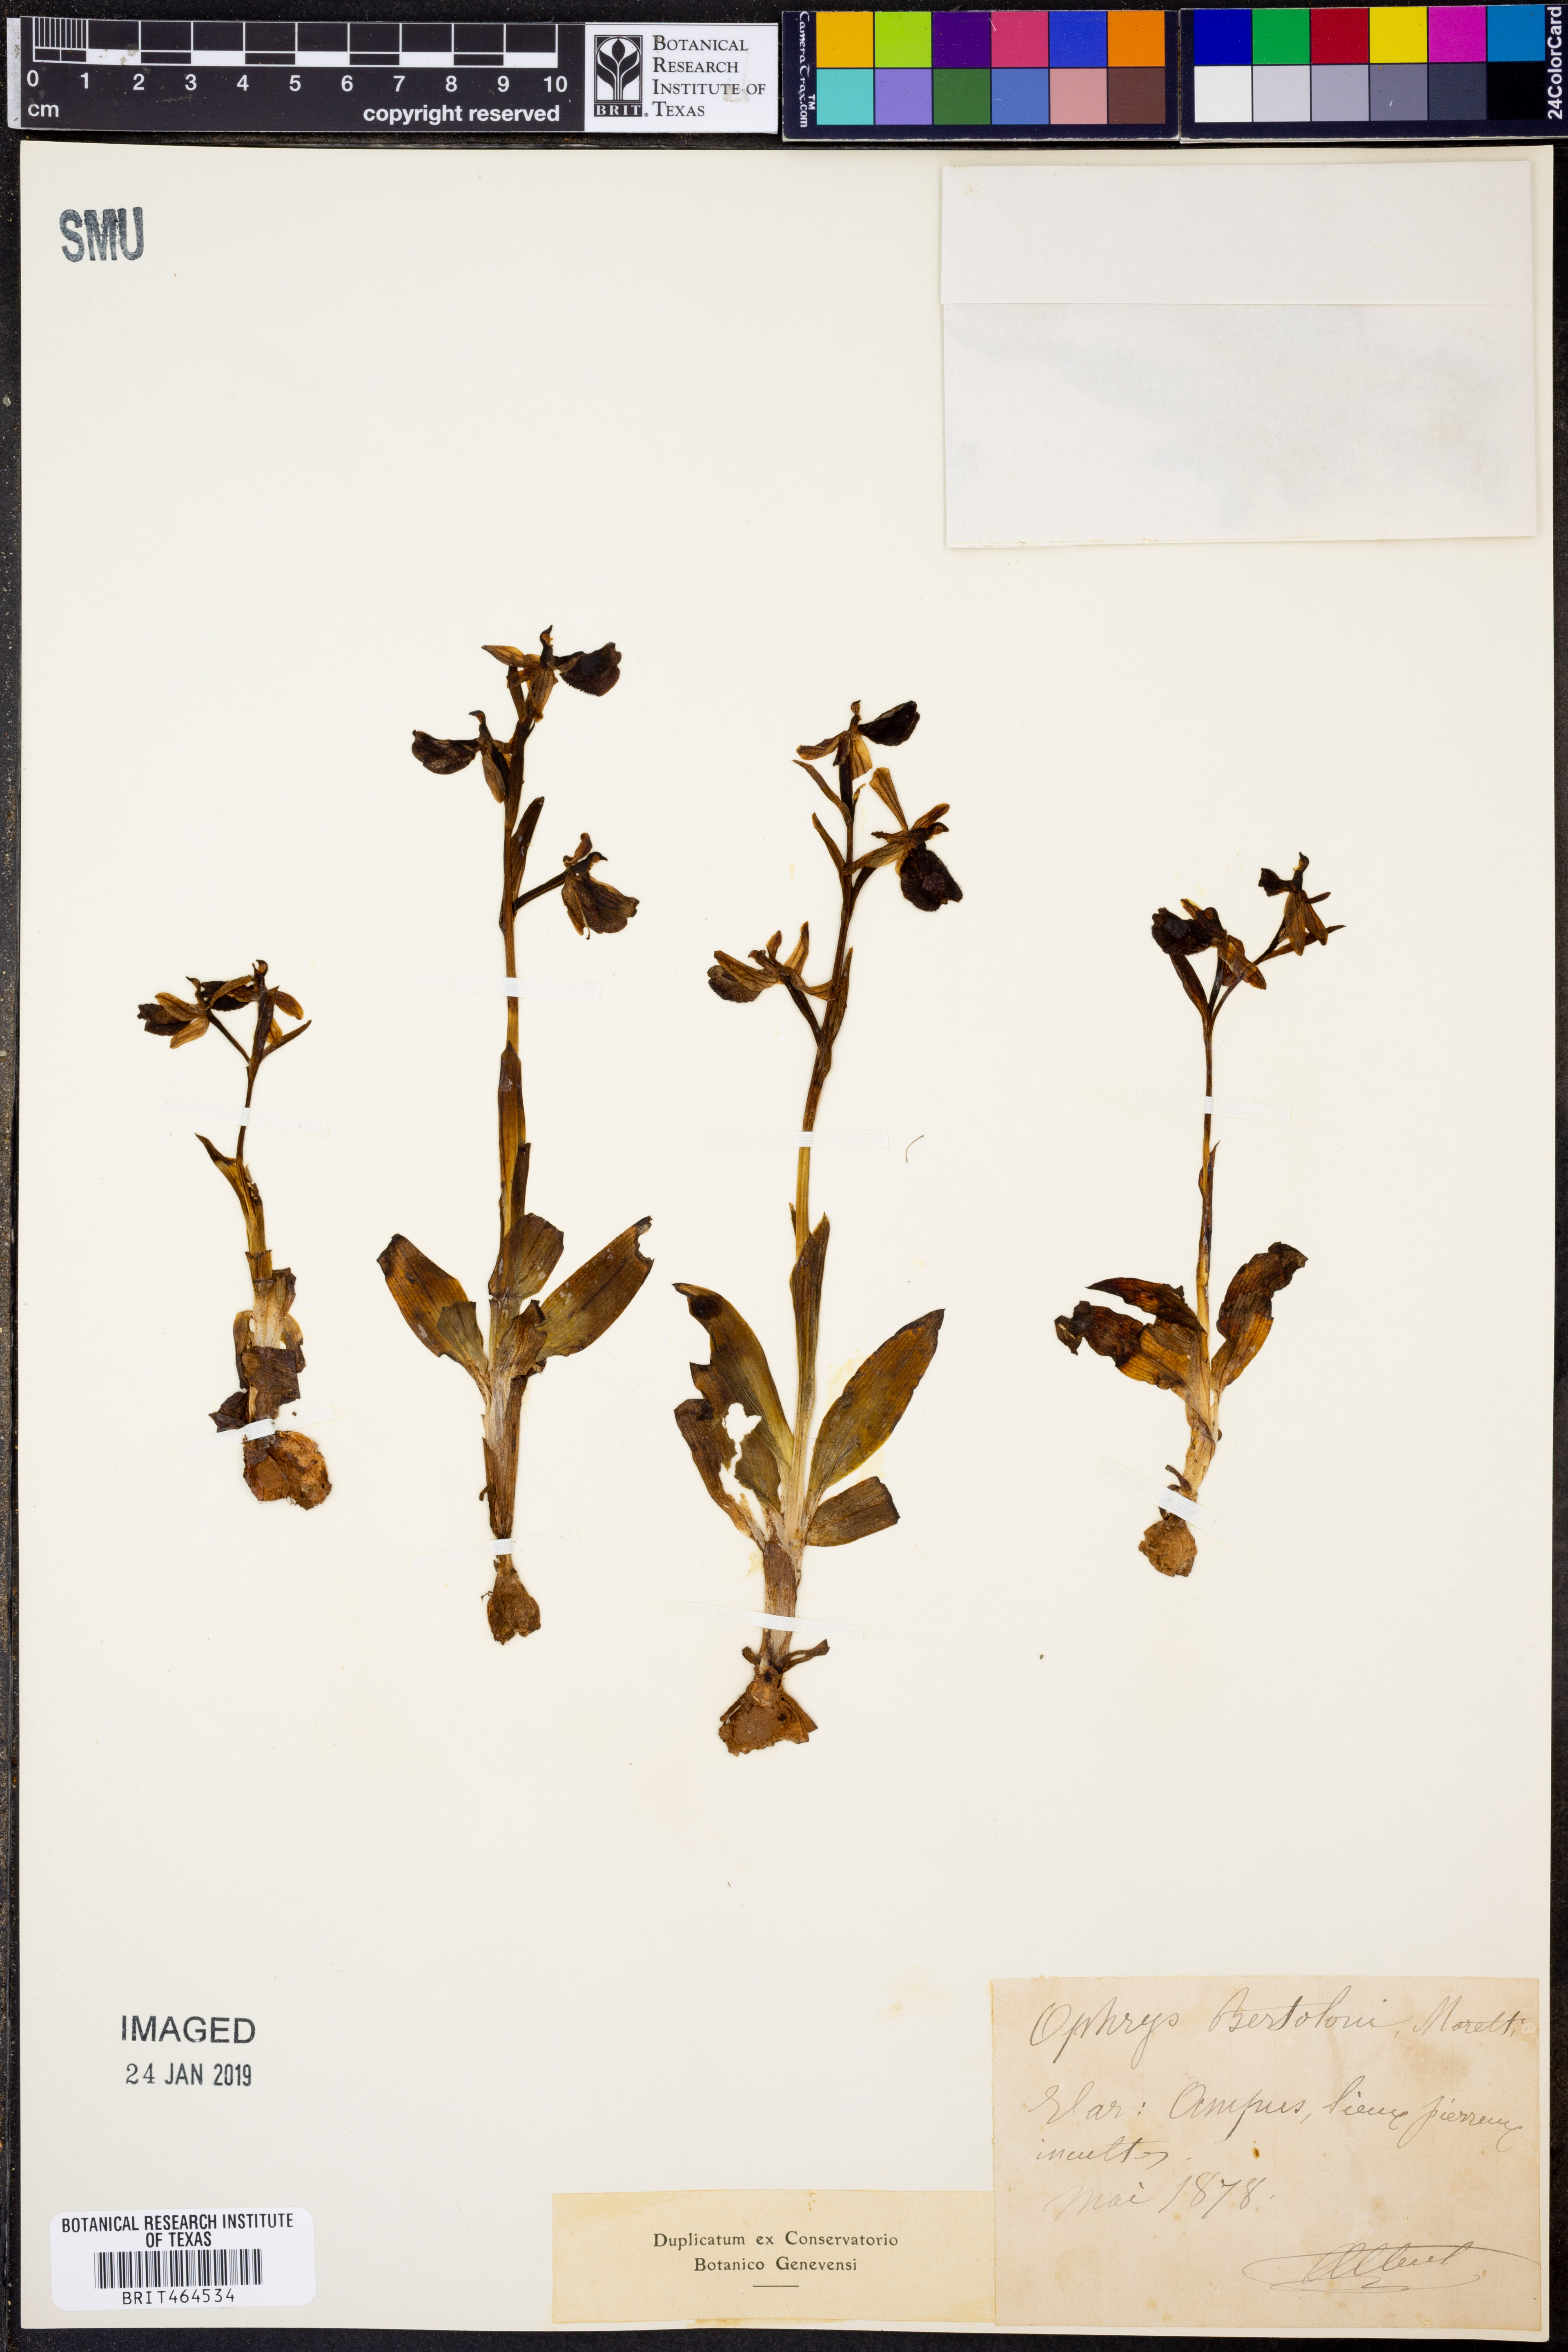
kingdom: Plantae
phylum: Tracheophyta
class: Liliopsida
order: Asparagales
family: Orchidaceae
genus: Ophrys
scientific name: Ophrys bertolonii
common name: Bertoloni's bee orchid
